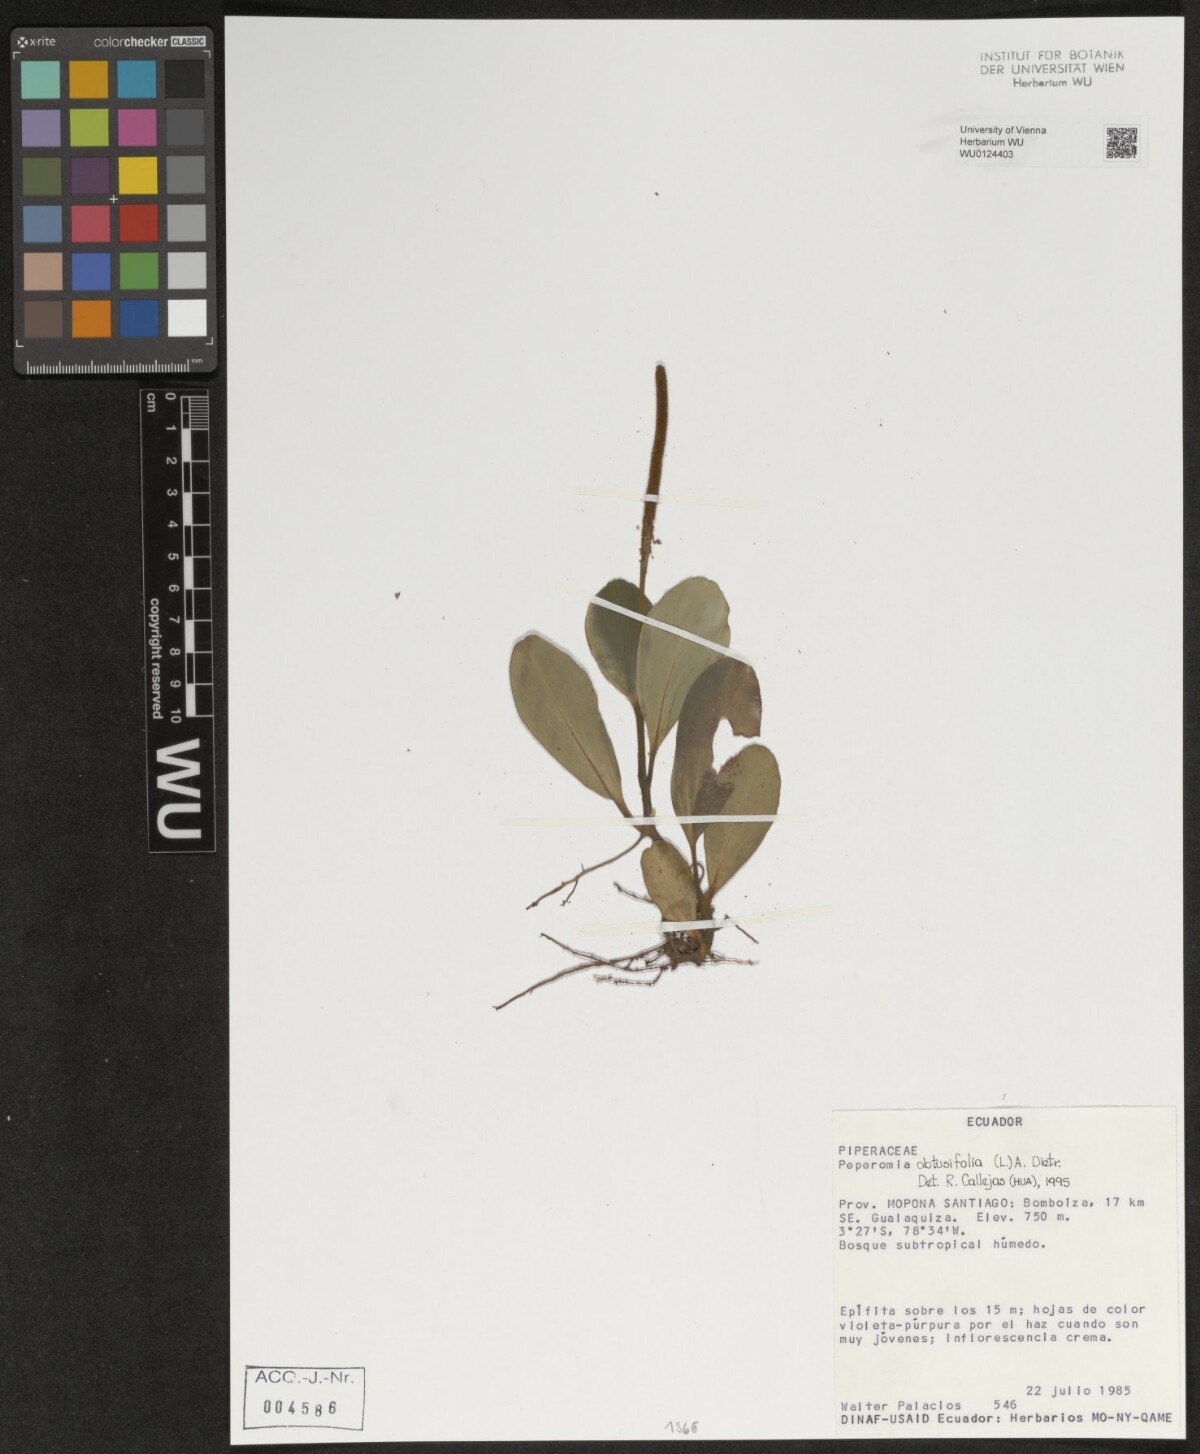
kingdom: Plantae
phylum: Tracheophyta
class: Magnoliopsida
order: Piperales
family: Piperaceae
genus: Peperomia
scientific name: Peperomia obtusifolia
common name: Baby rubberplant
